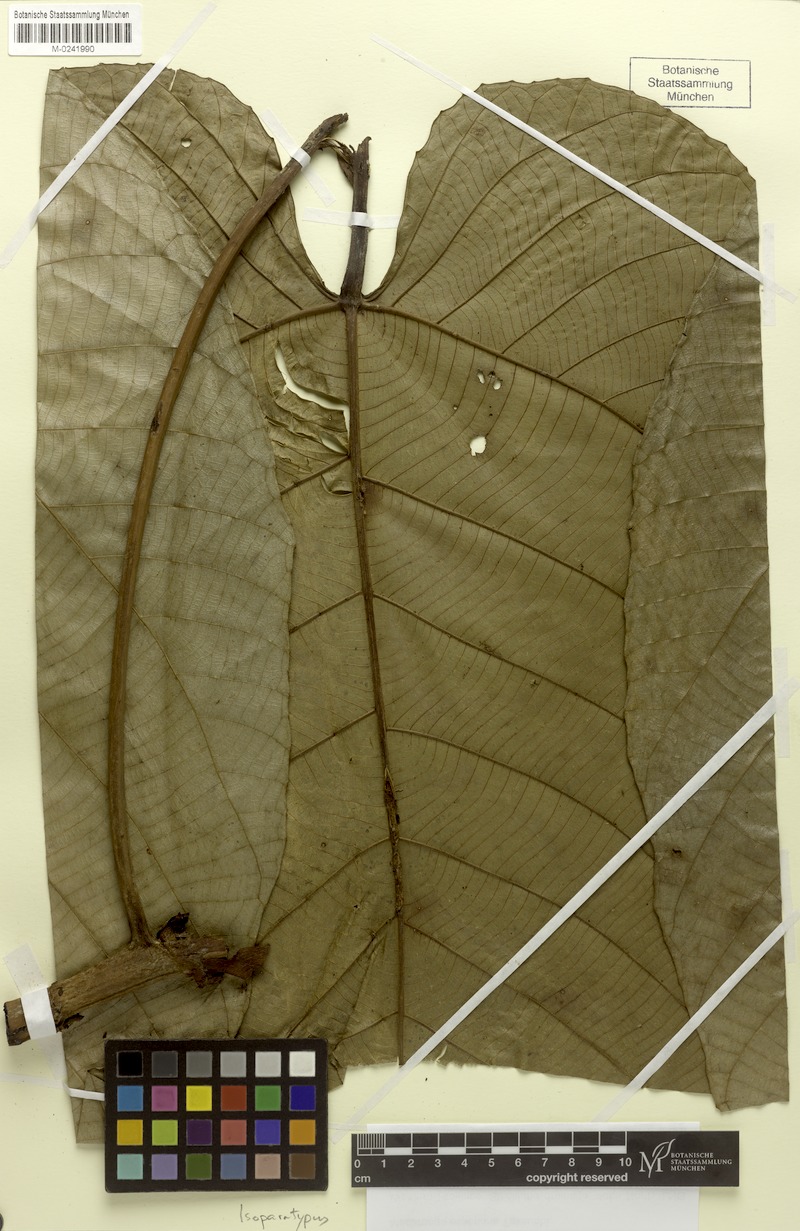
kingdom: Plantae
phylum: Tracheophyta
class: Magnoliopsida
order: Malpighiales
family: Euphorbiaceae
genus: Macaranga
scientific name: Macaranga esseriana
